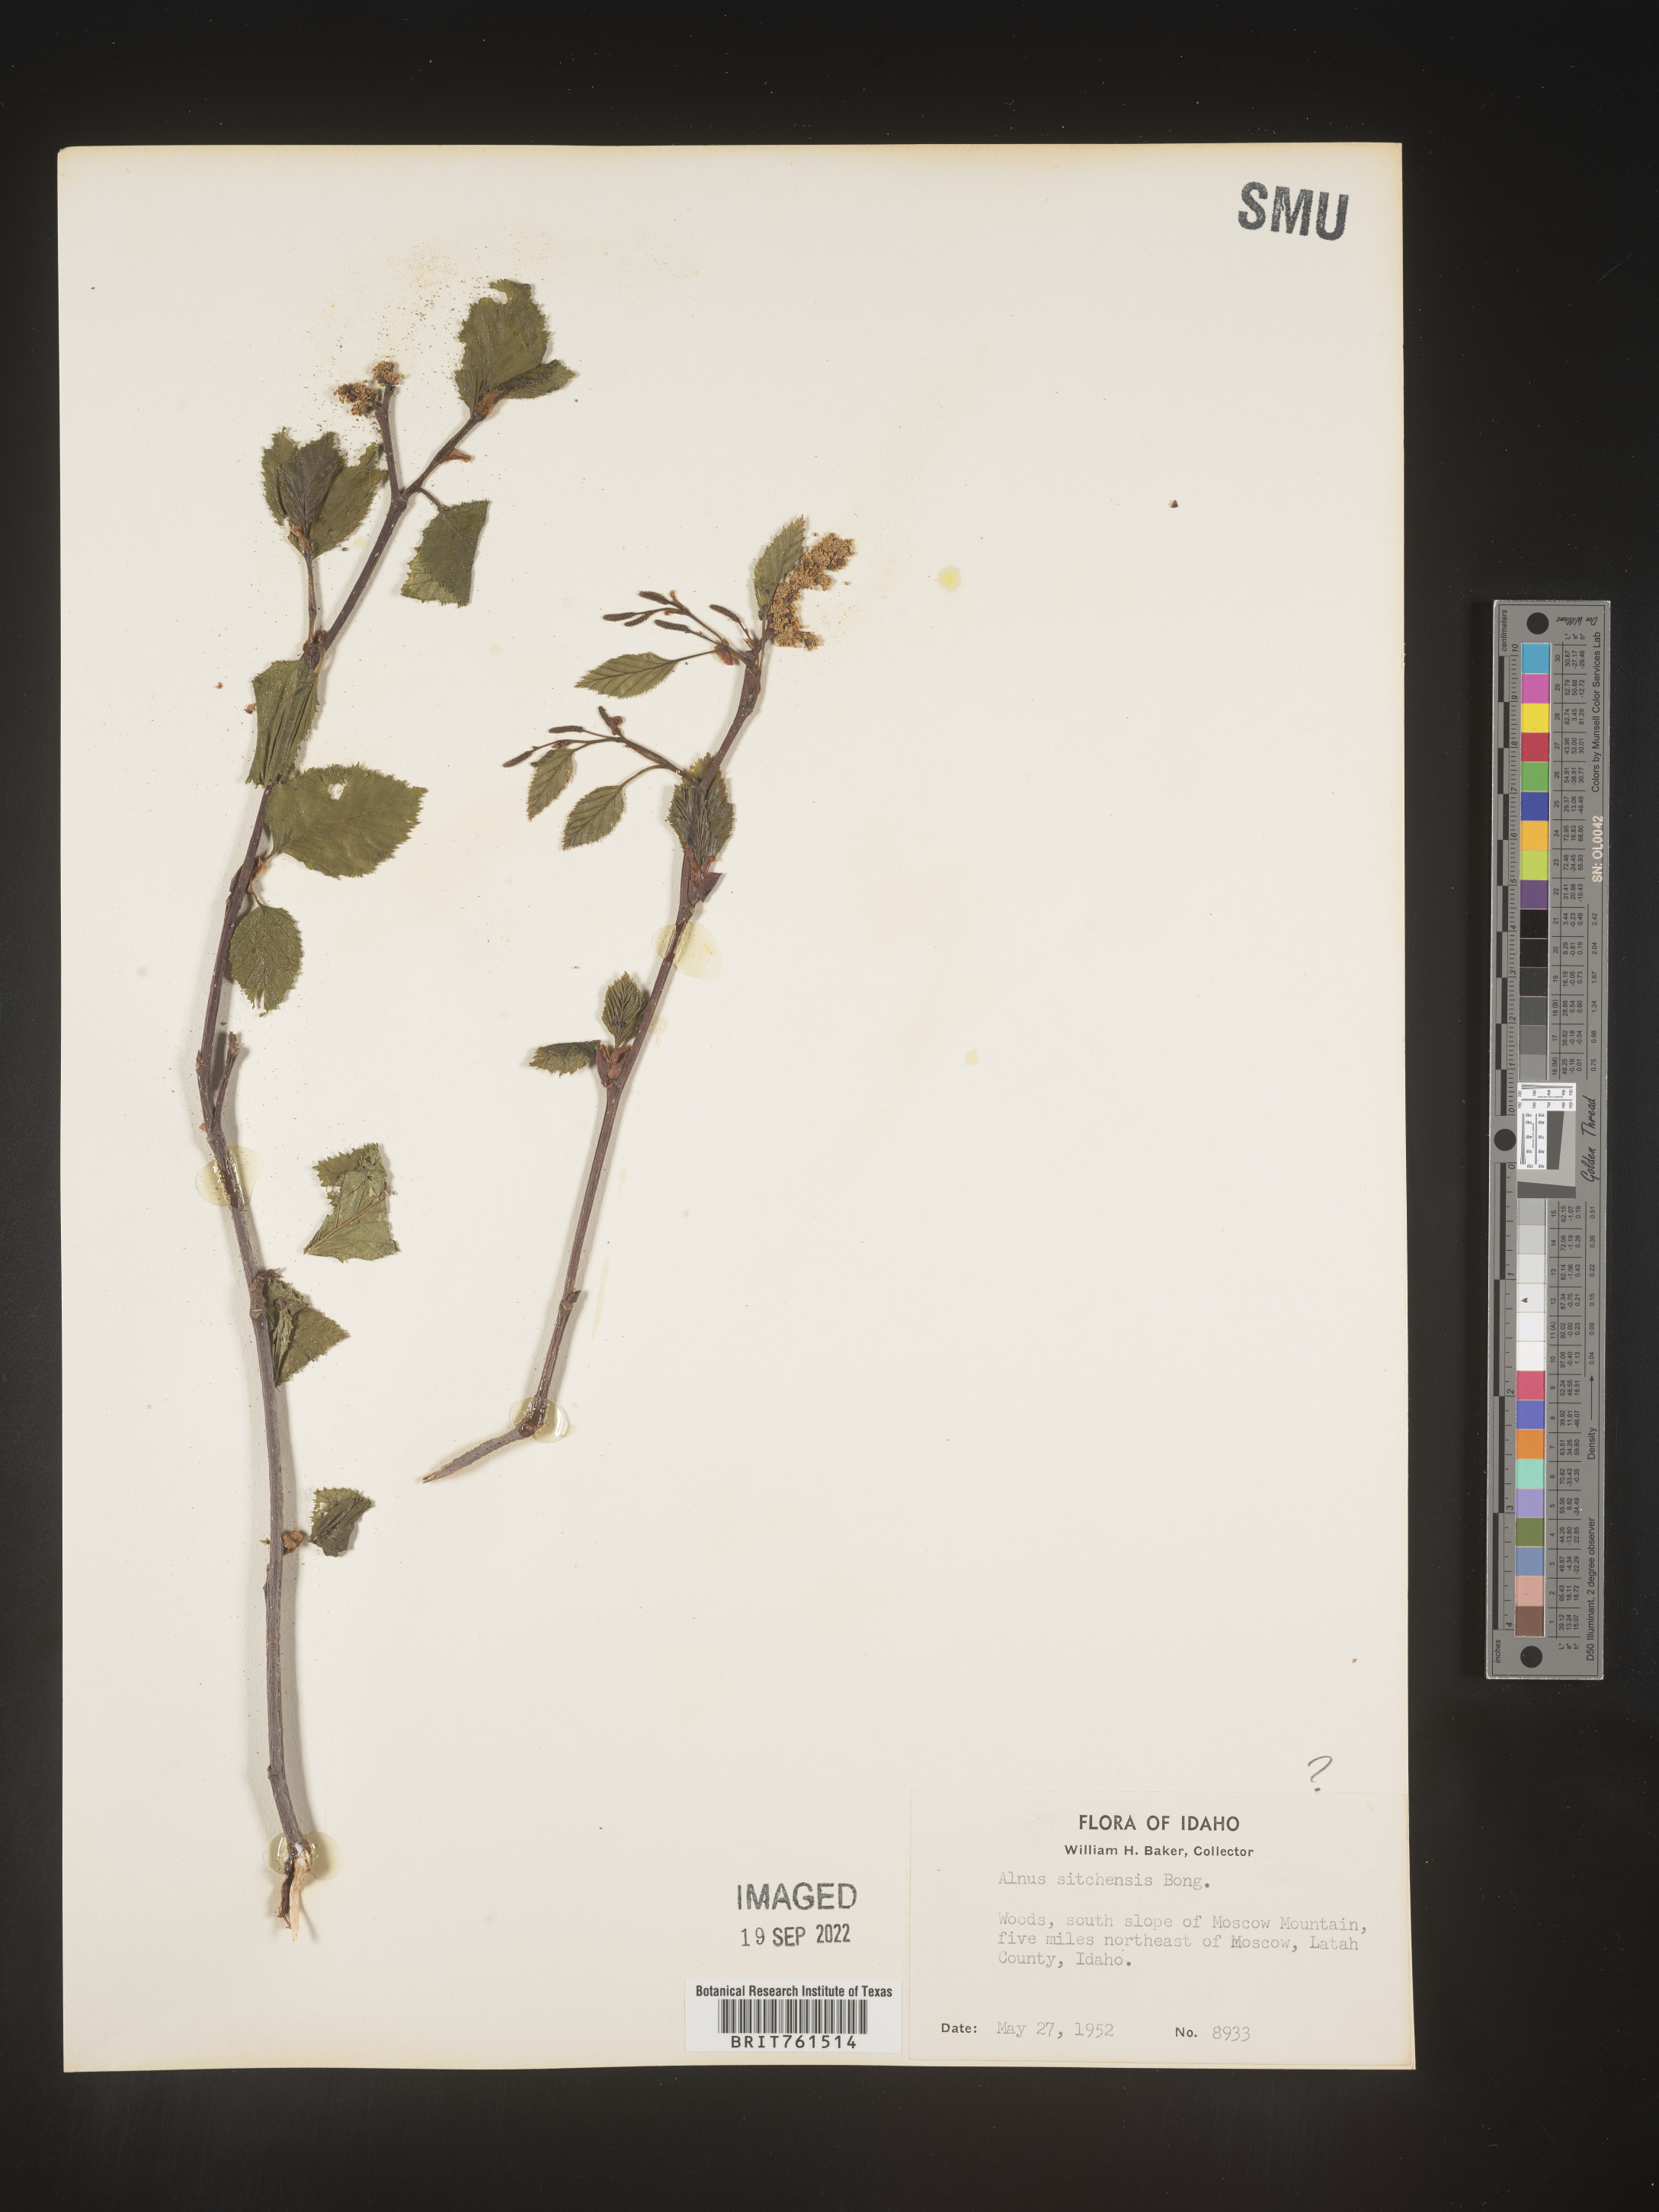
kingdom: Plantae
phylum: Tracheophyta
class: Magnoliopsida
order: Fagales
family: Betulaceae
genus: Alnus
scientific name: Alnus
